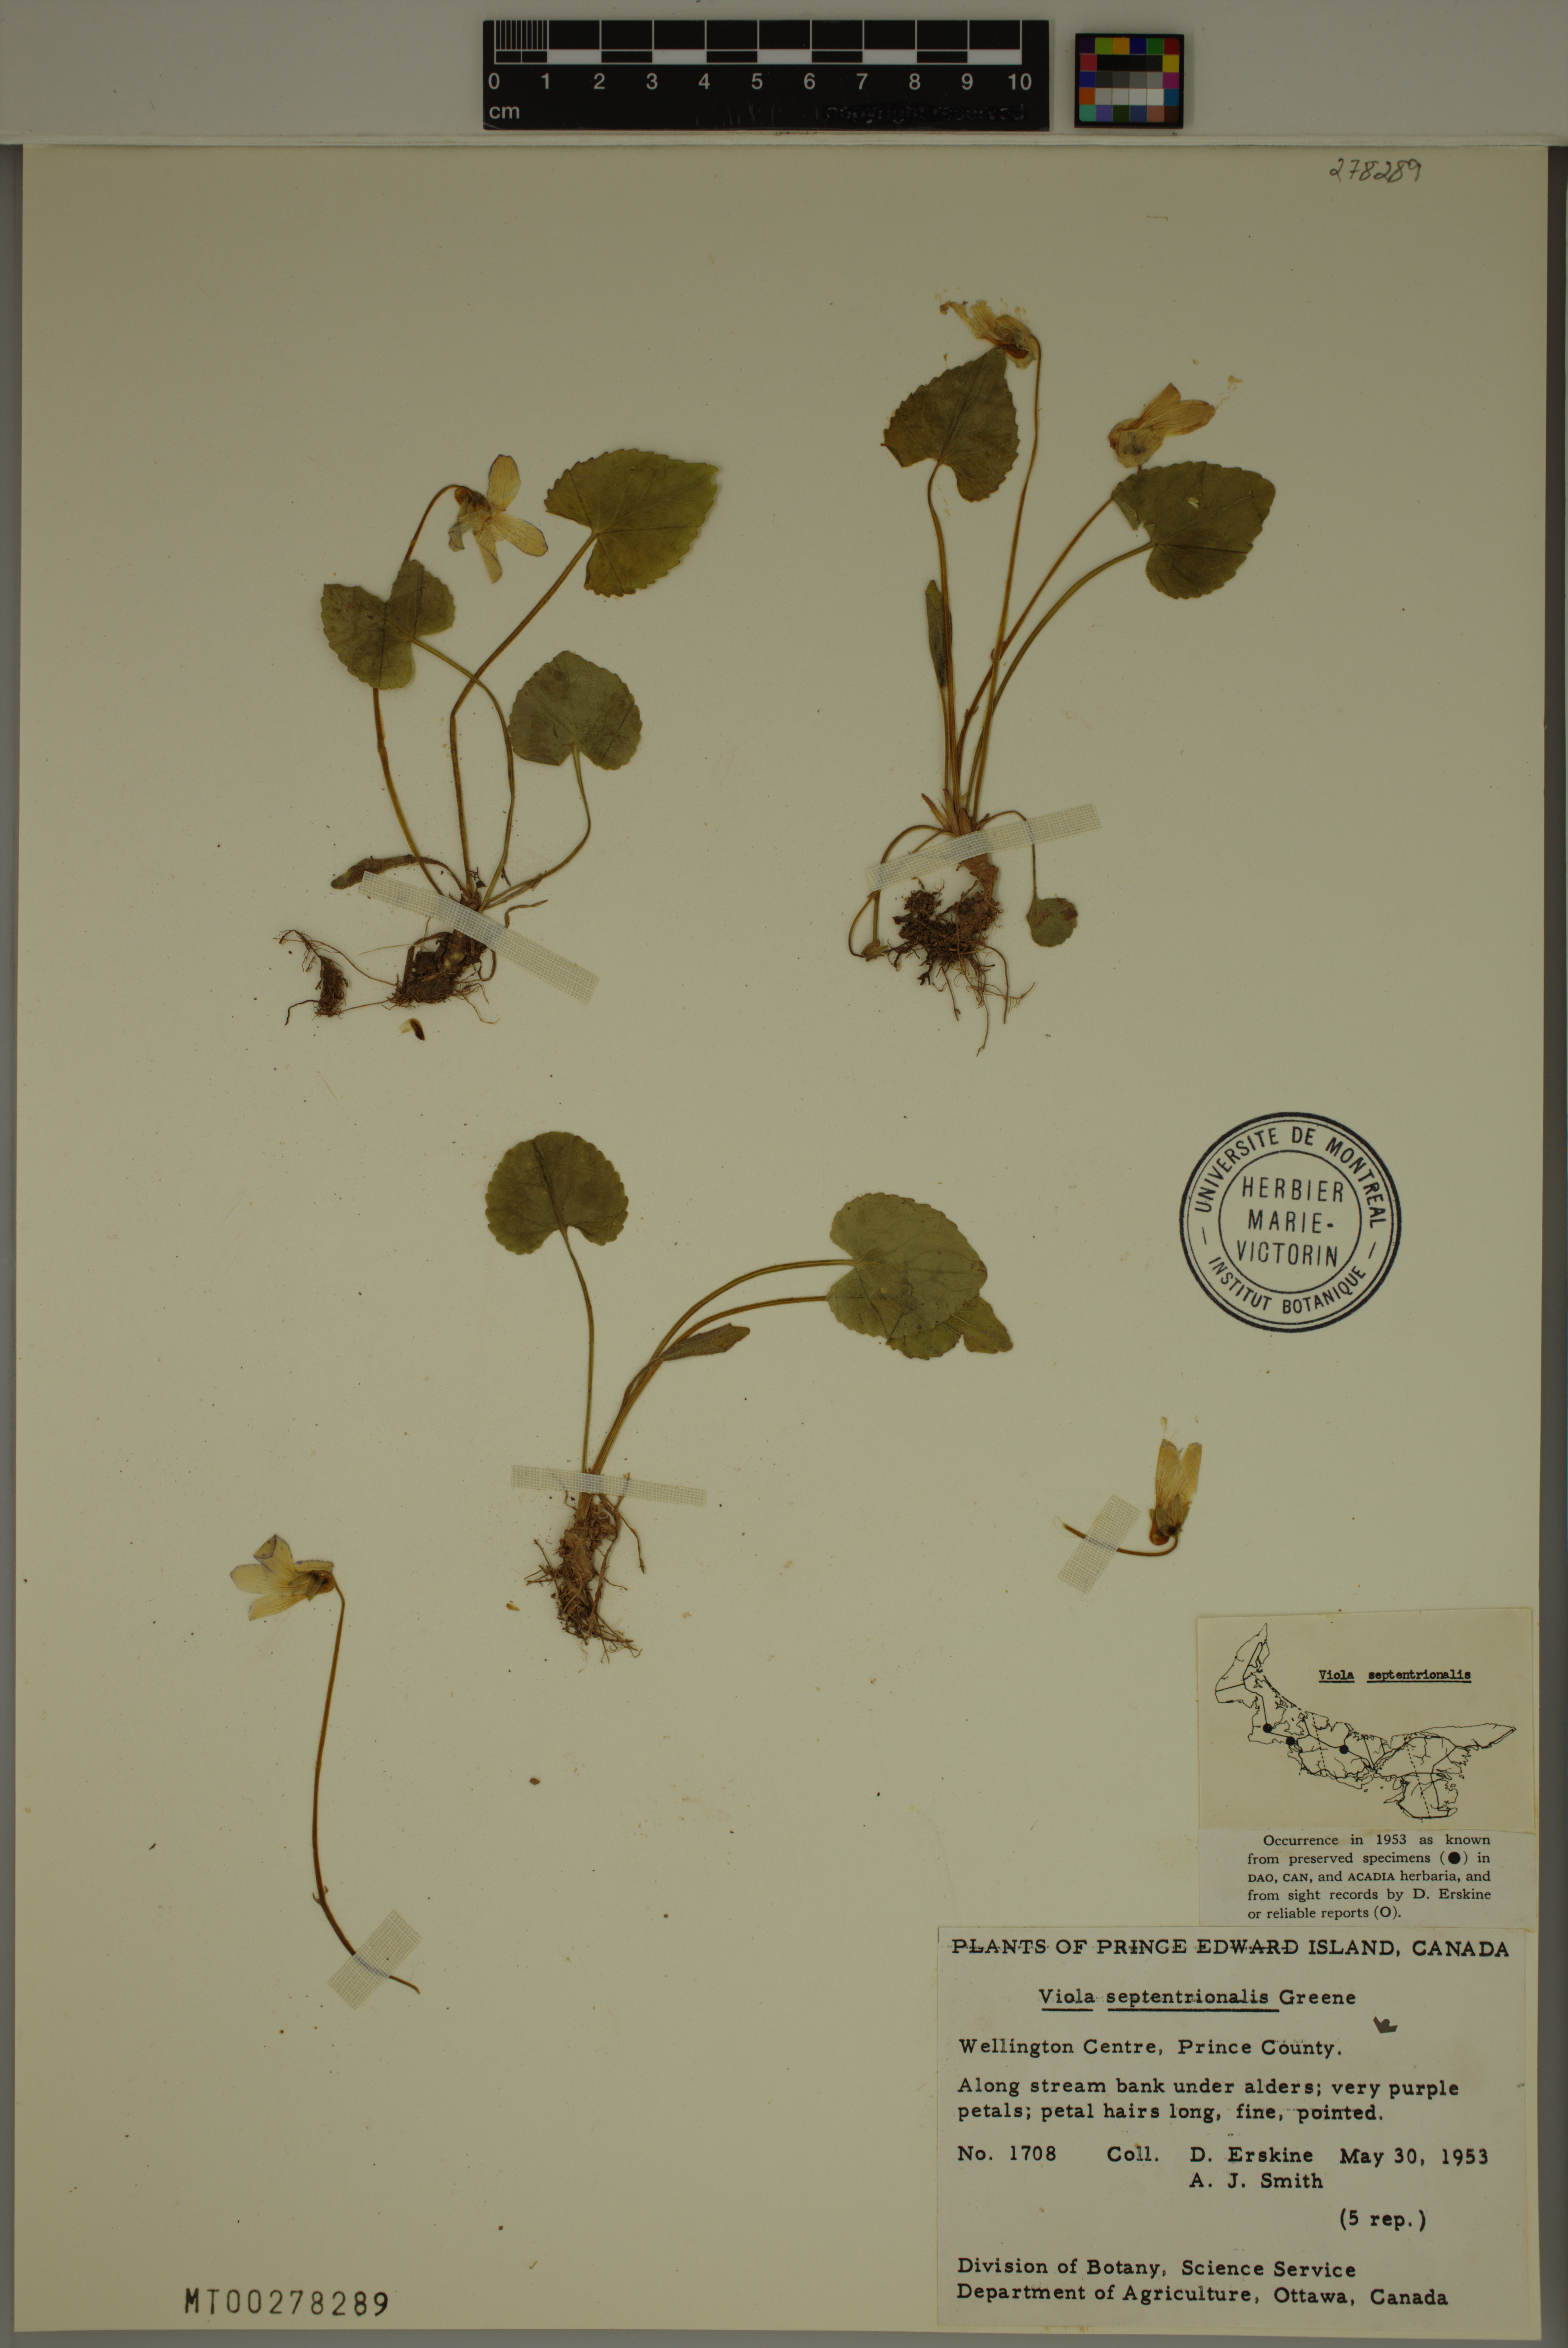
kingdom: Plantae
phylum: Tracheophyta
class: Magnoliopsida
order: Malpighiales
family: Violaceae
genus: Viola
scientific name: Viola septentrionalis
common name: Northern woodland violet
